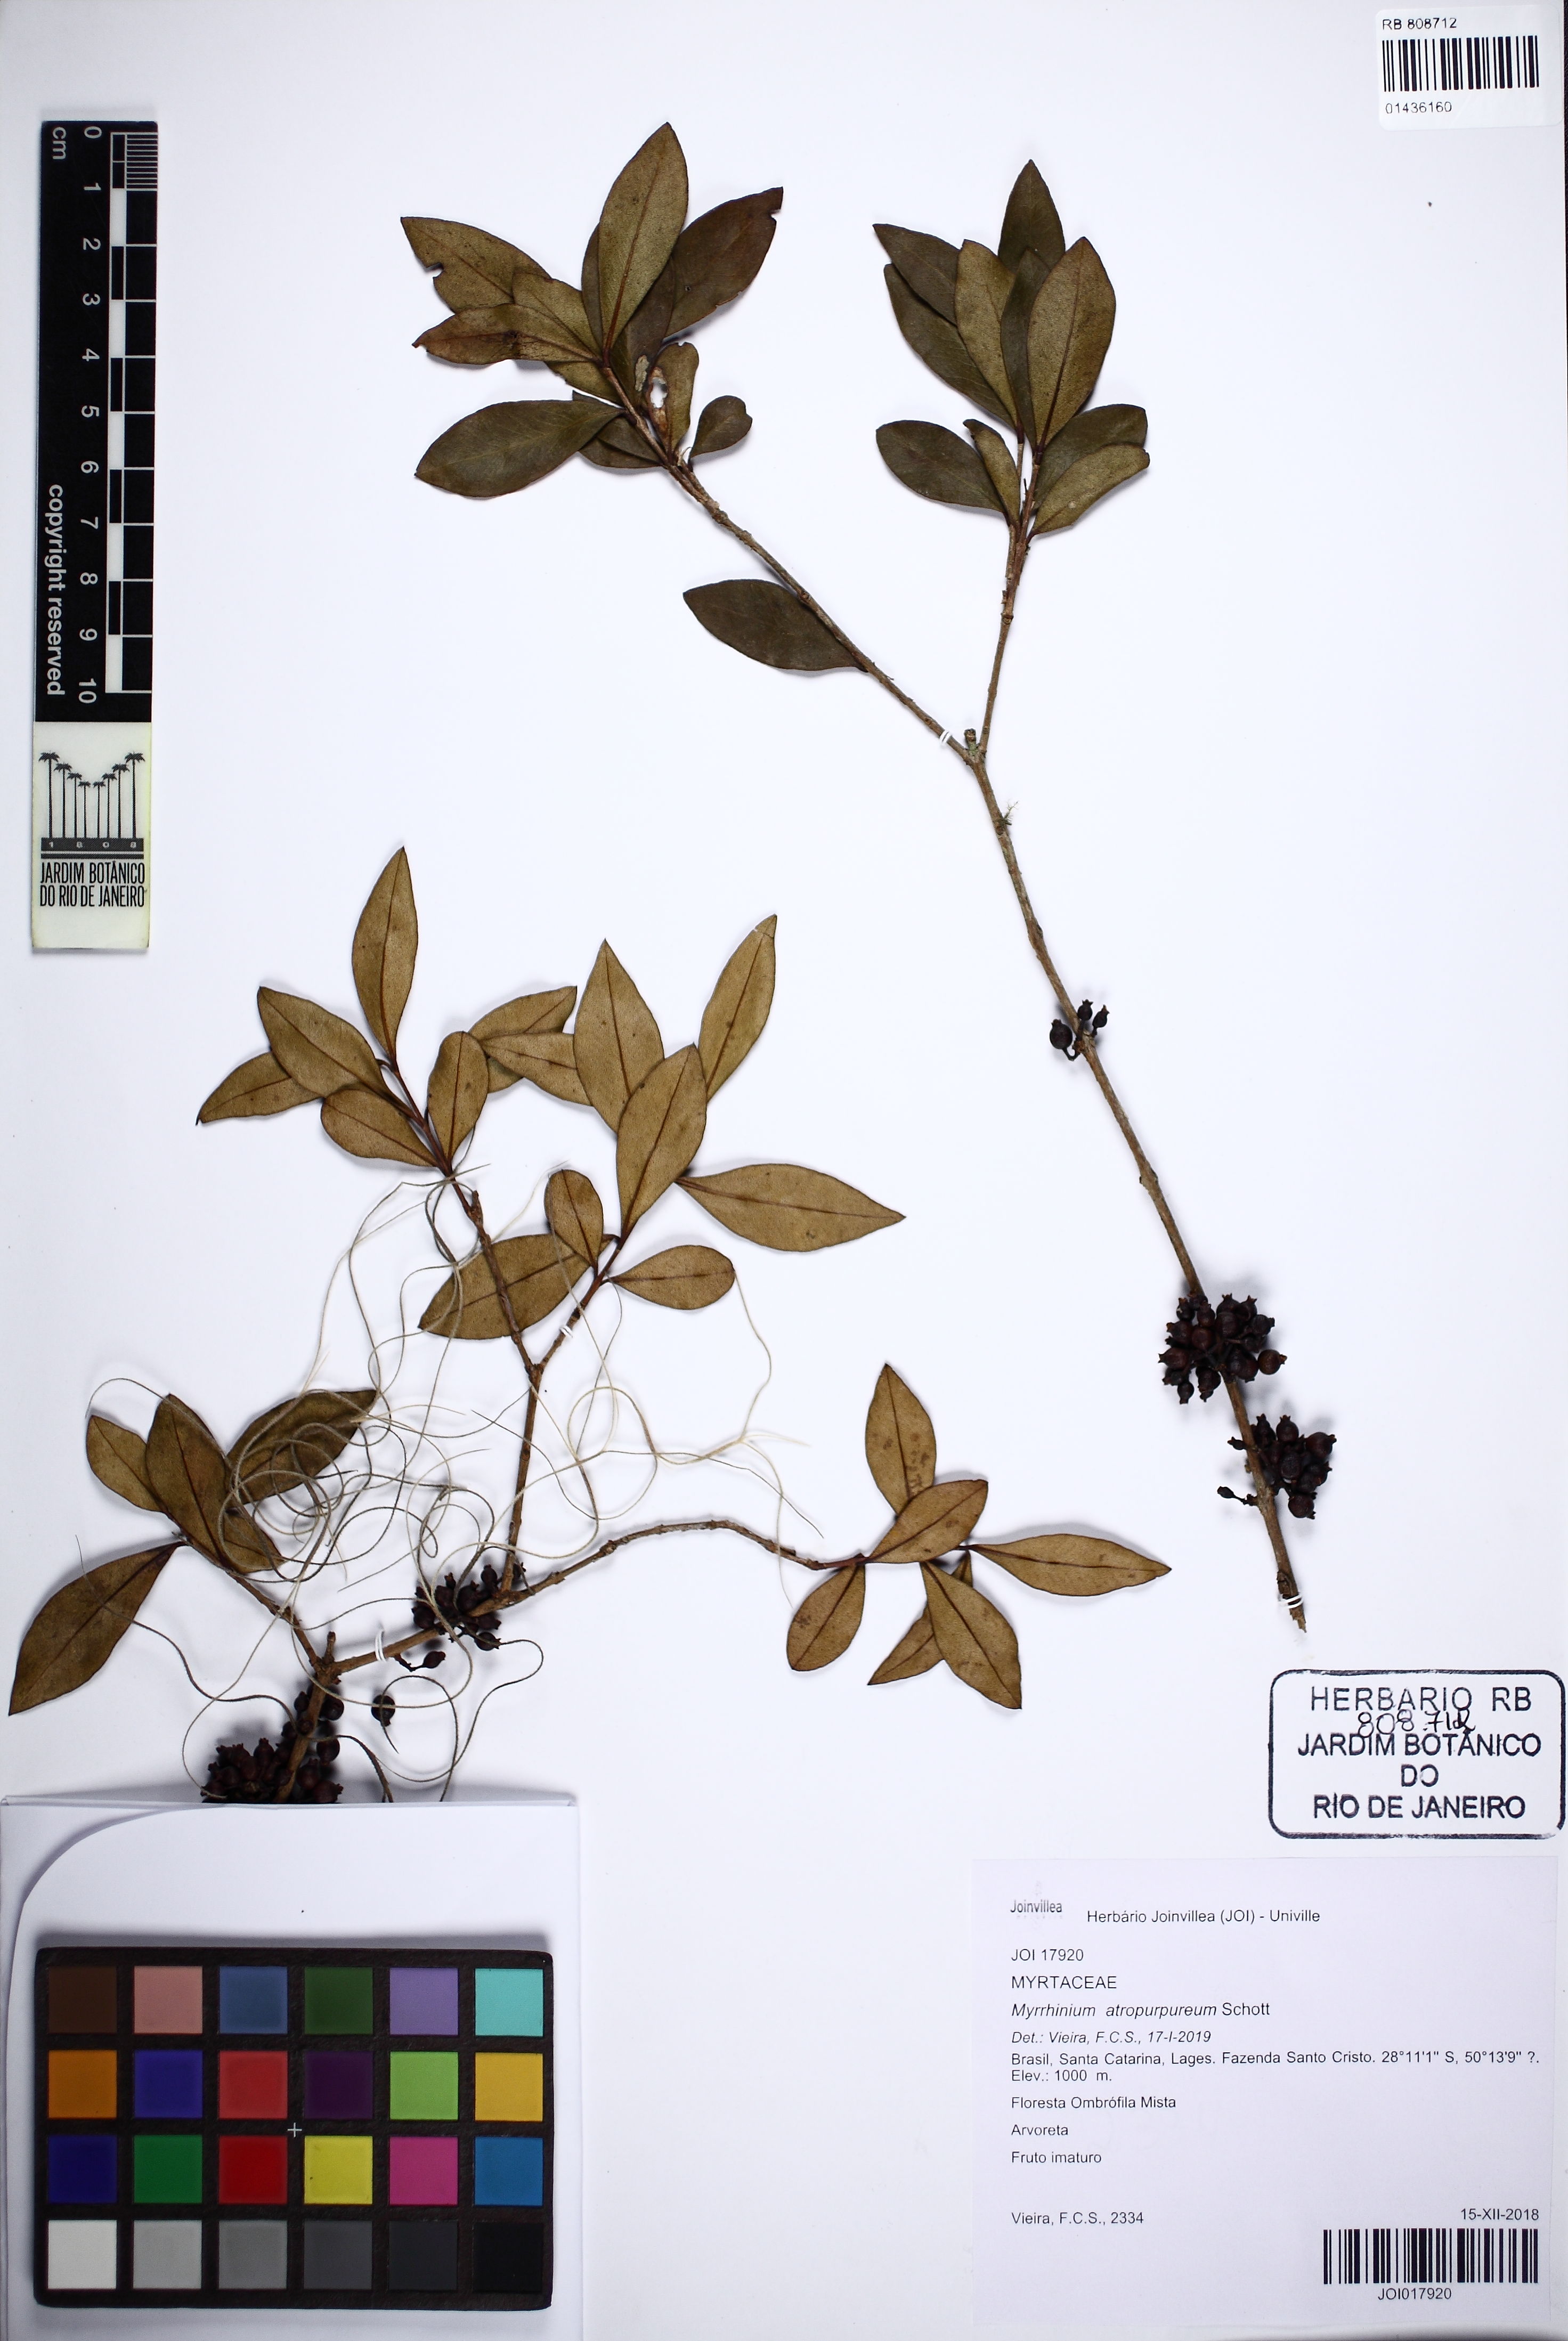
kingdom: Plantae
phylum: Tracheophyta
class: Magnoliopsida
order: Myrtales
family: Myrtaceae
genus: Myrrhinium
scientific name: Myrrhinium atropurpureum
